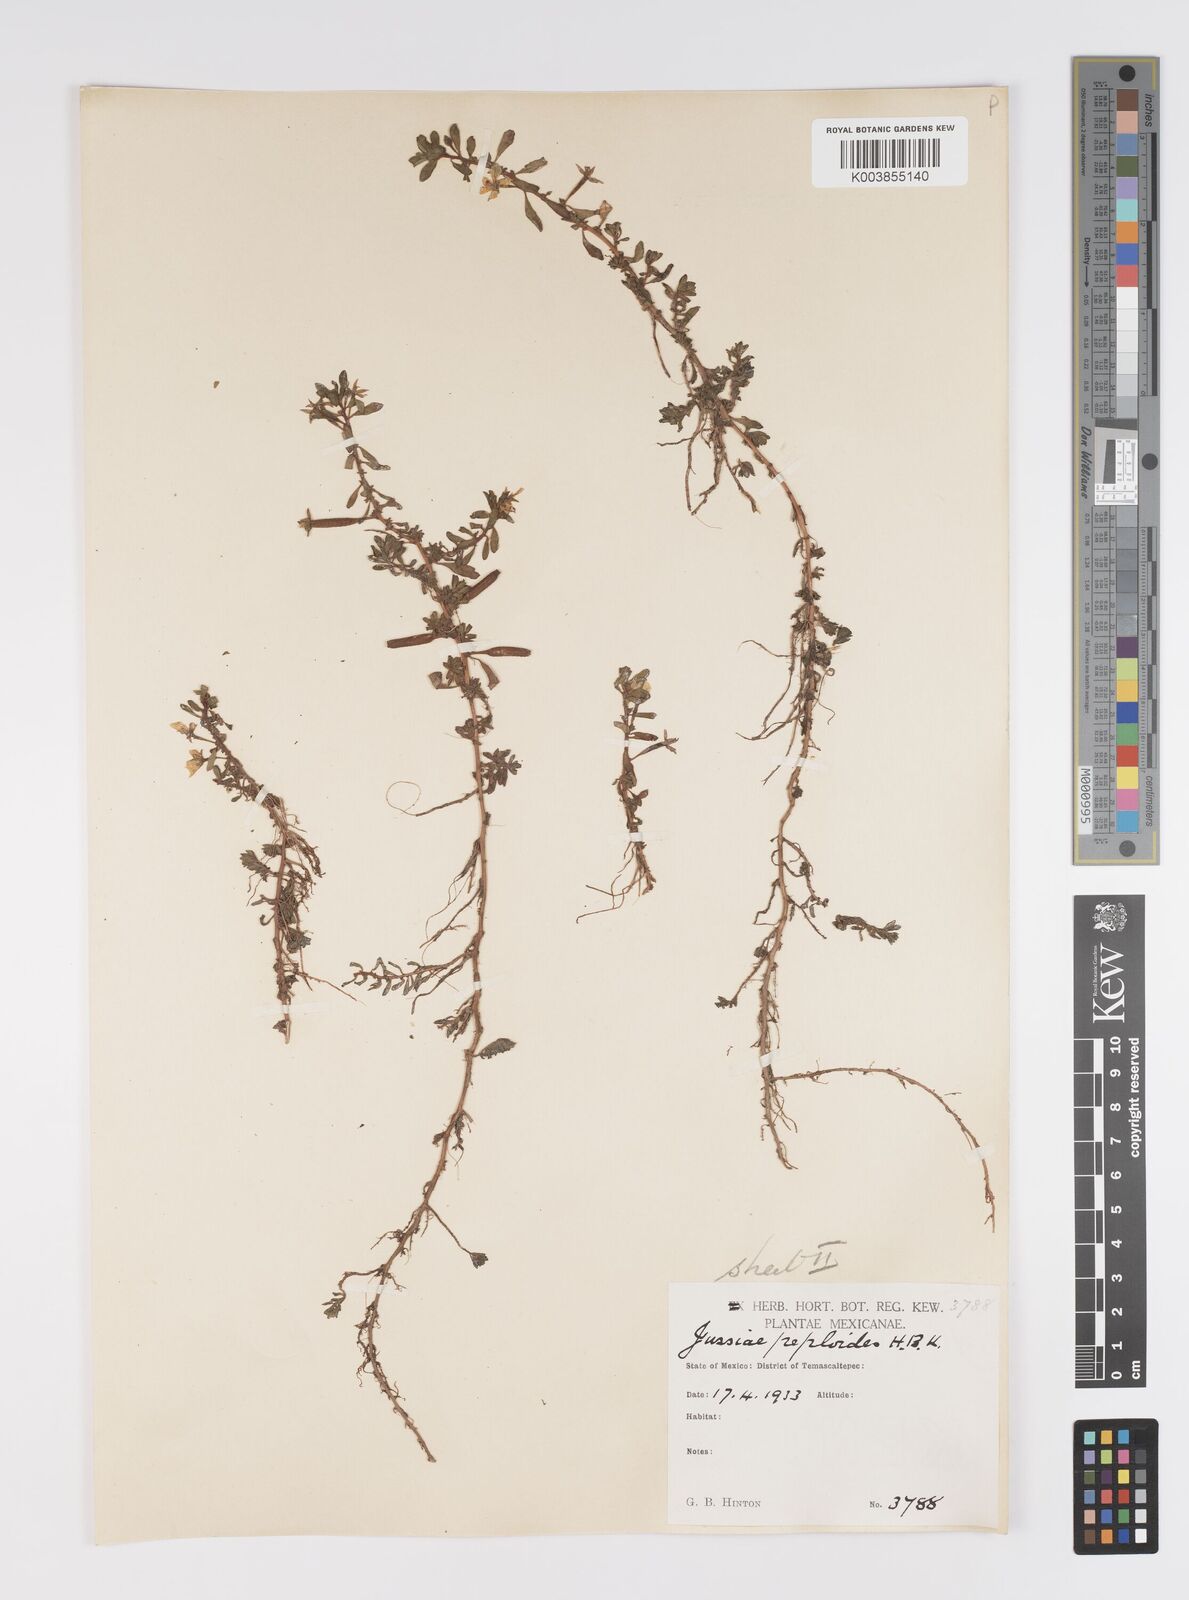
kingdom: Plantae
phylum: Tracheophyta
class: Magnoliopsida
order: Myrtales
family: Onagraceae
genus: Ludwigia
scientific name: Ludwigia adscendens
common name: Creeping water primrose
